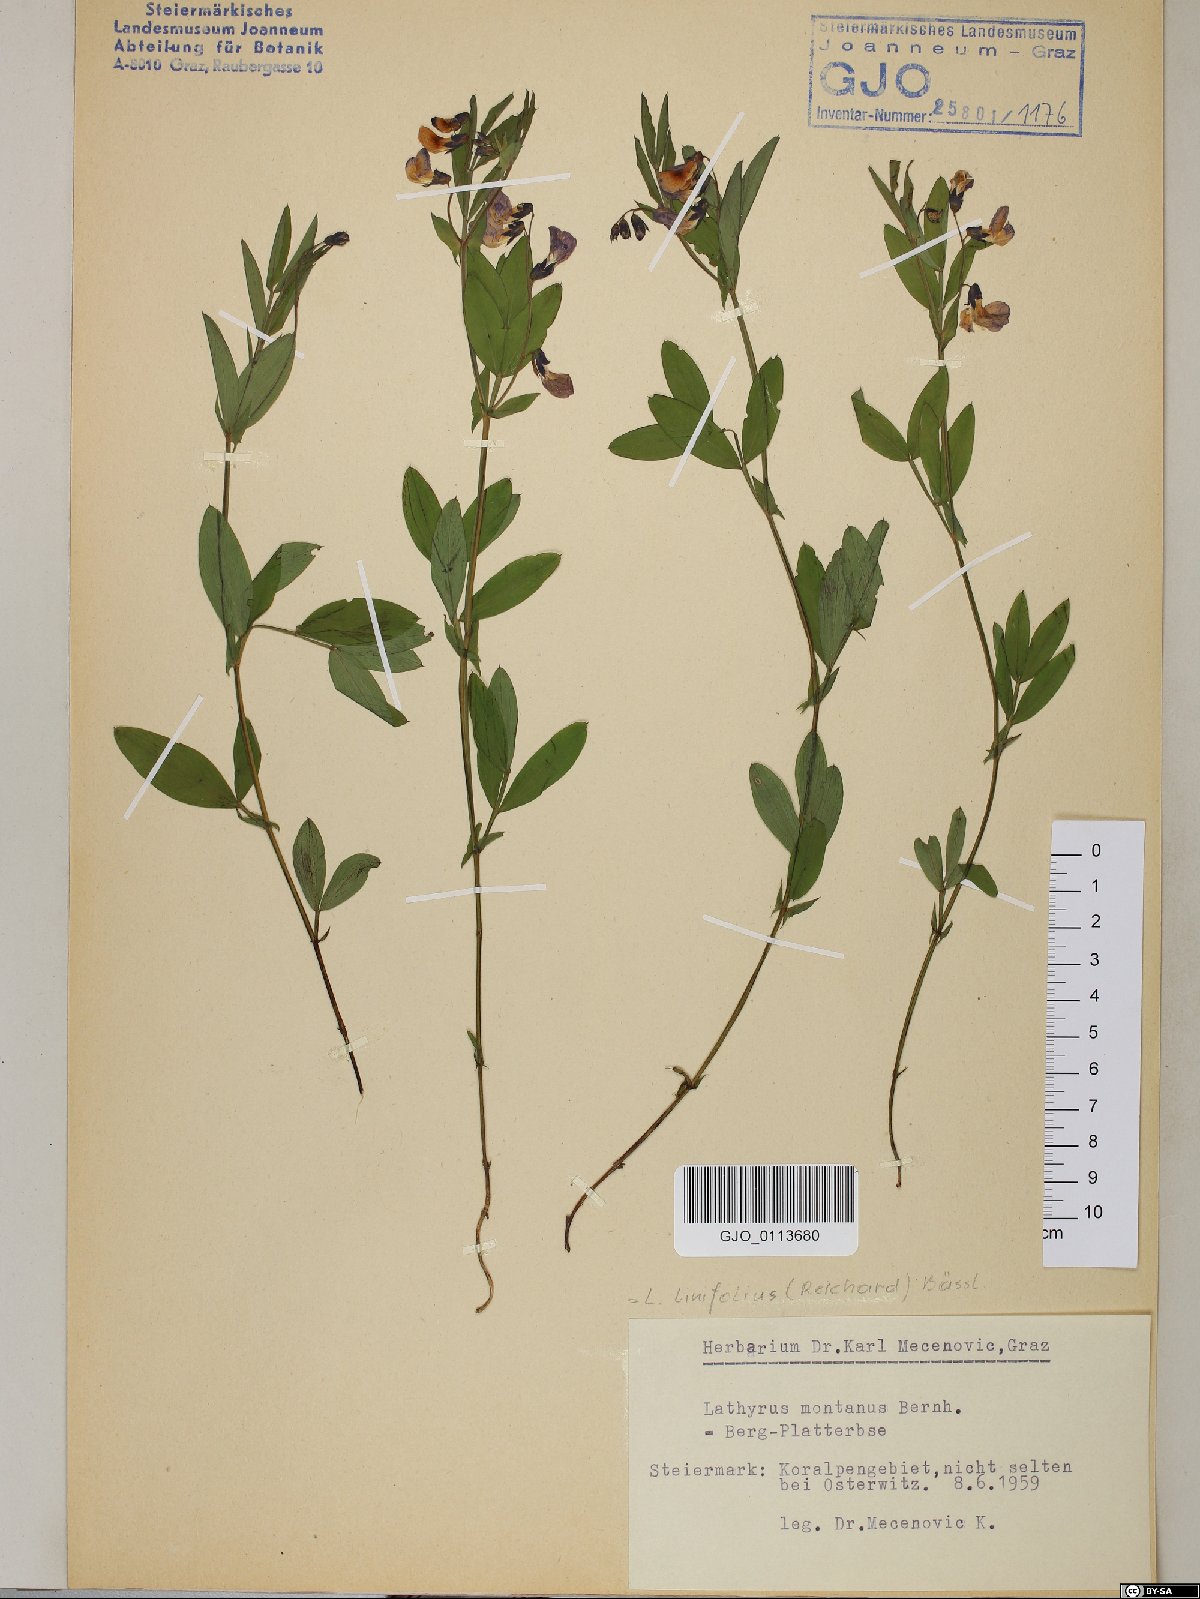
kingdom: Plantae
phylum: Tracheophyta
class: Magnoliopsida
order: Fabales
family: Fabaceae
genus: Lathyrus
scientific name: Lathyrus linifolius
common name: Bitter-vetch
